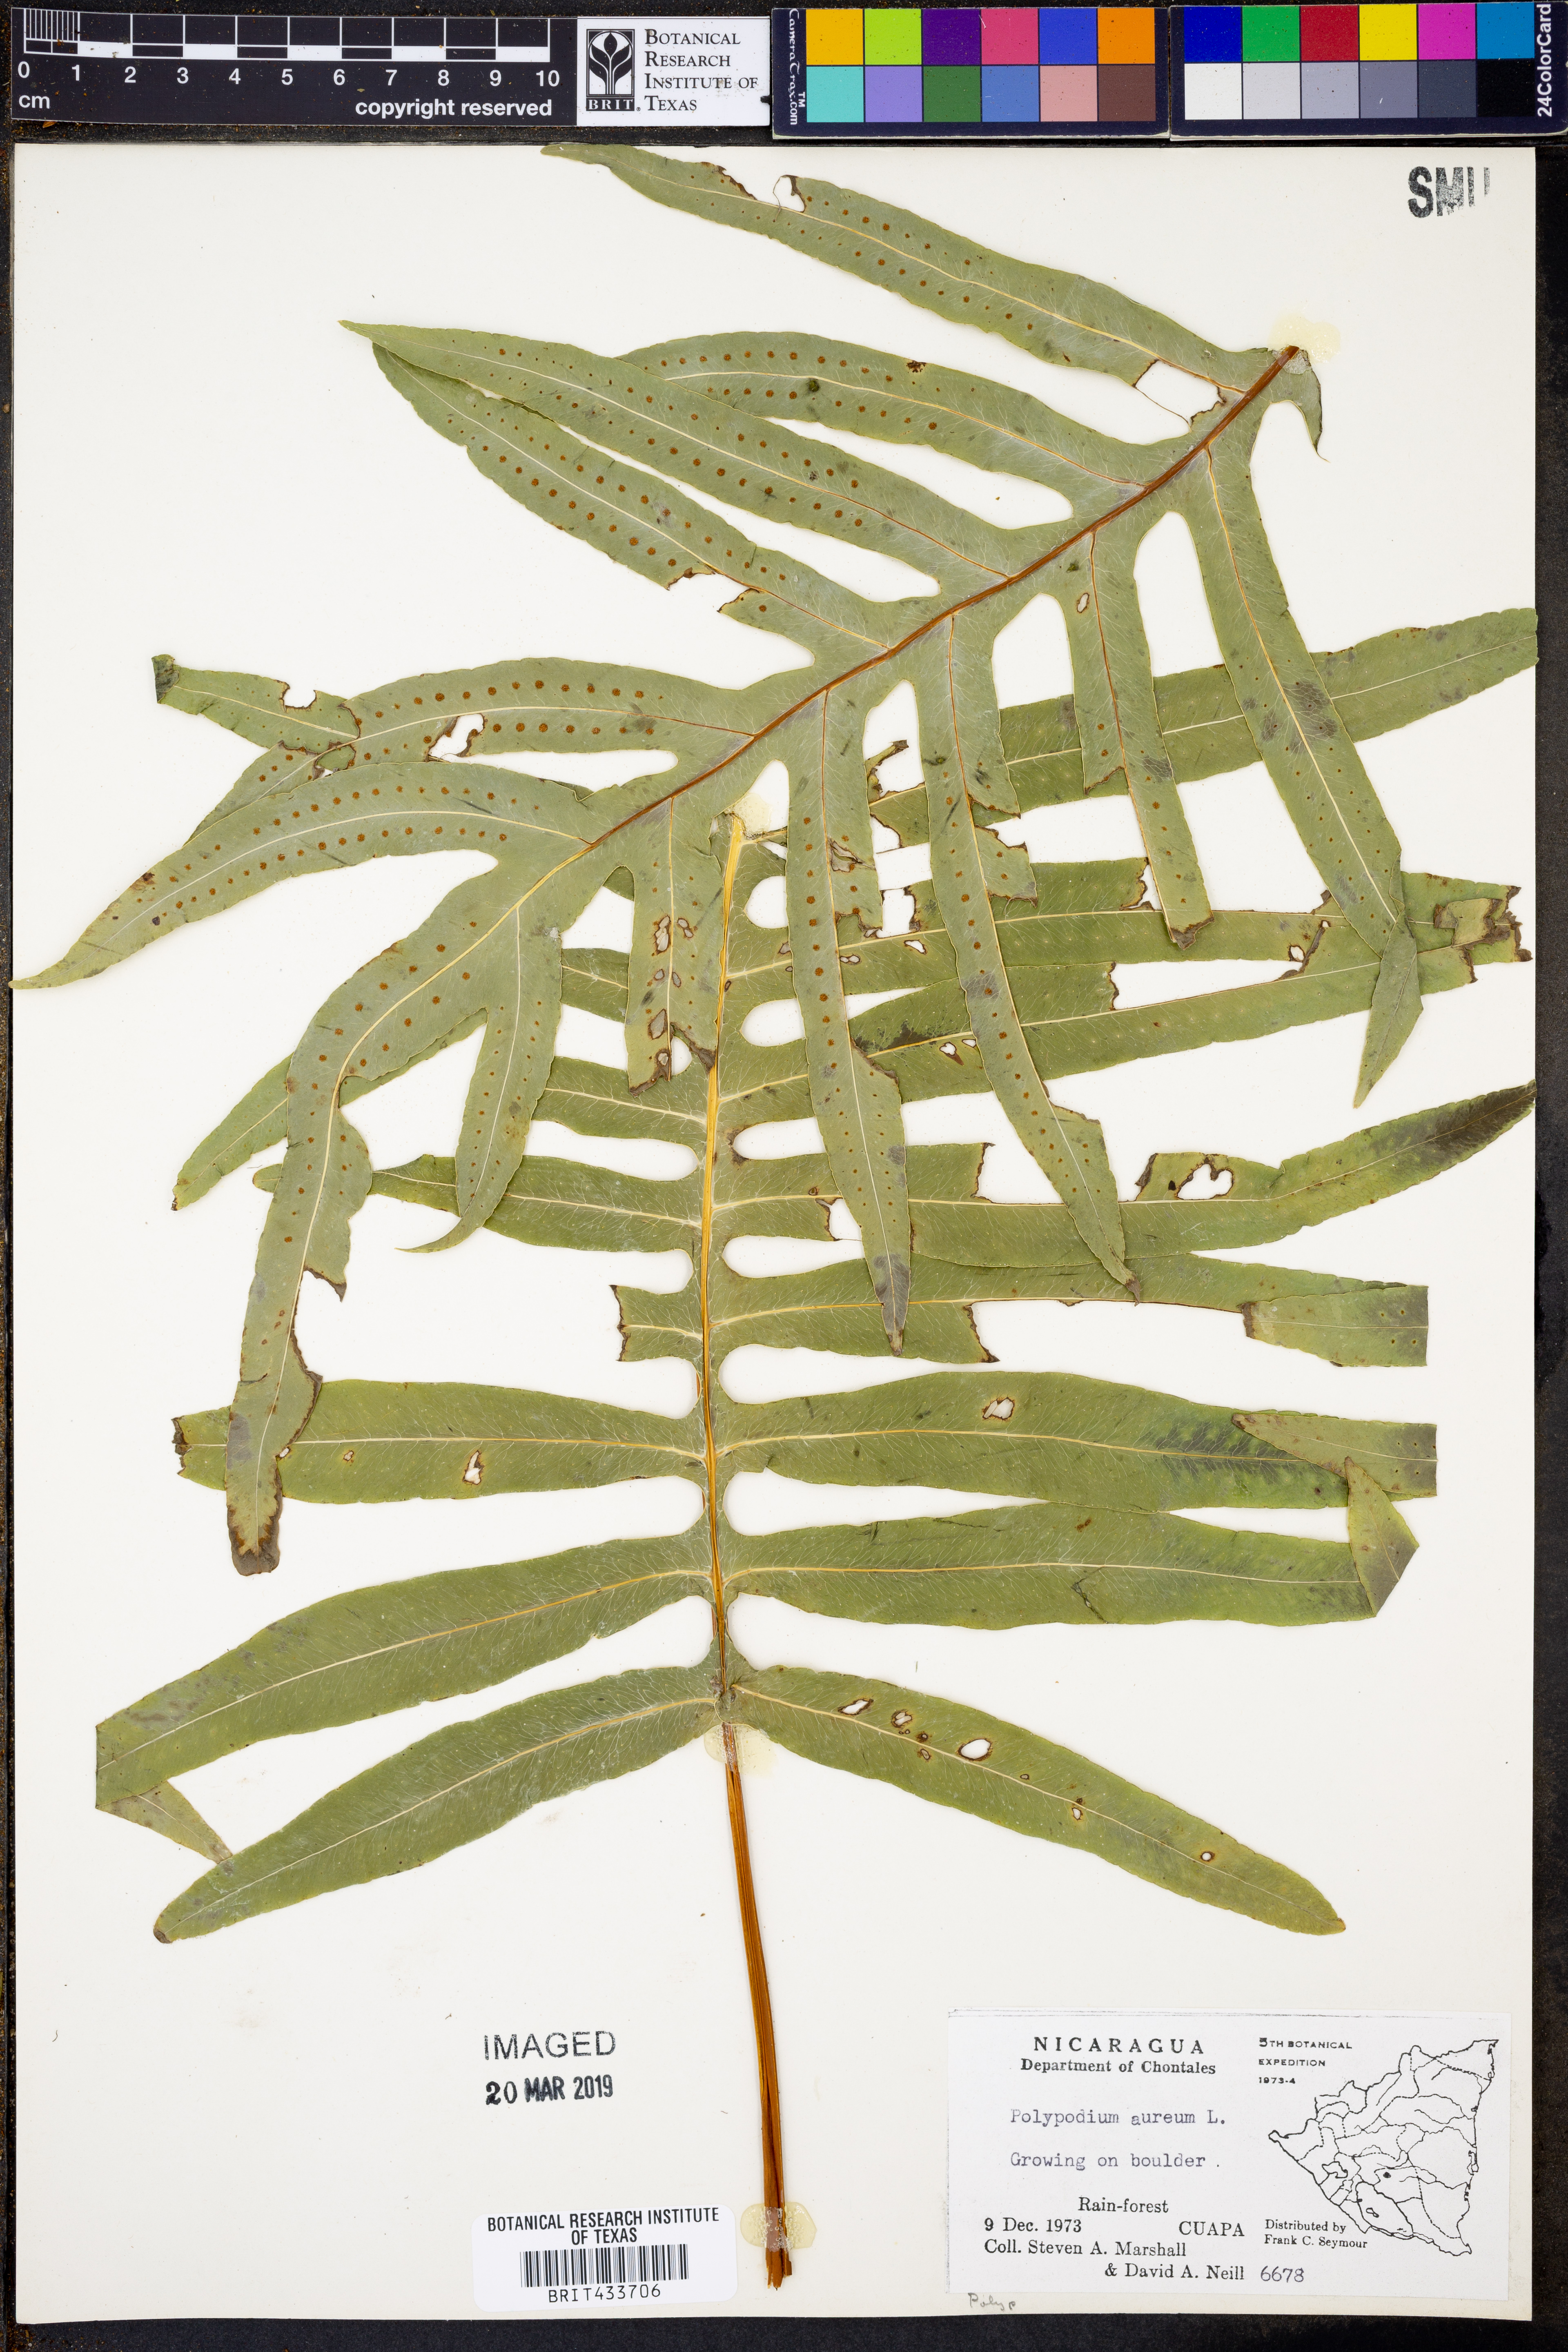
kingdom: Plantae
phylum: Tracheophyta
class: Polypodiopsida
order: Polypodiales
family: Polypodiaceae
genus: Phlebodium
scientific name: Phlebodium aureum
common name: Gold-foot fern
